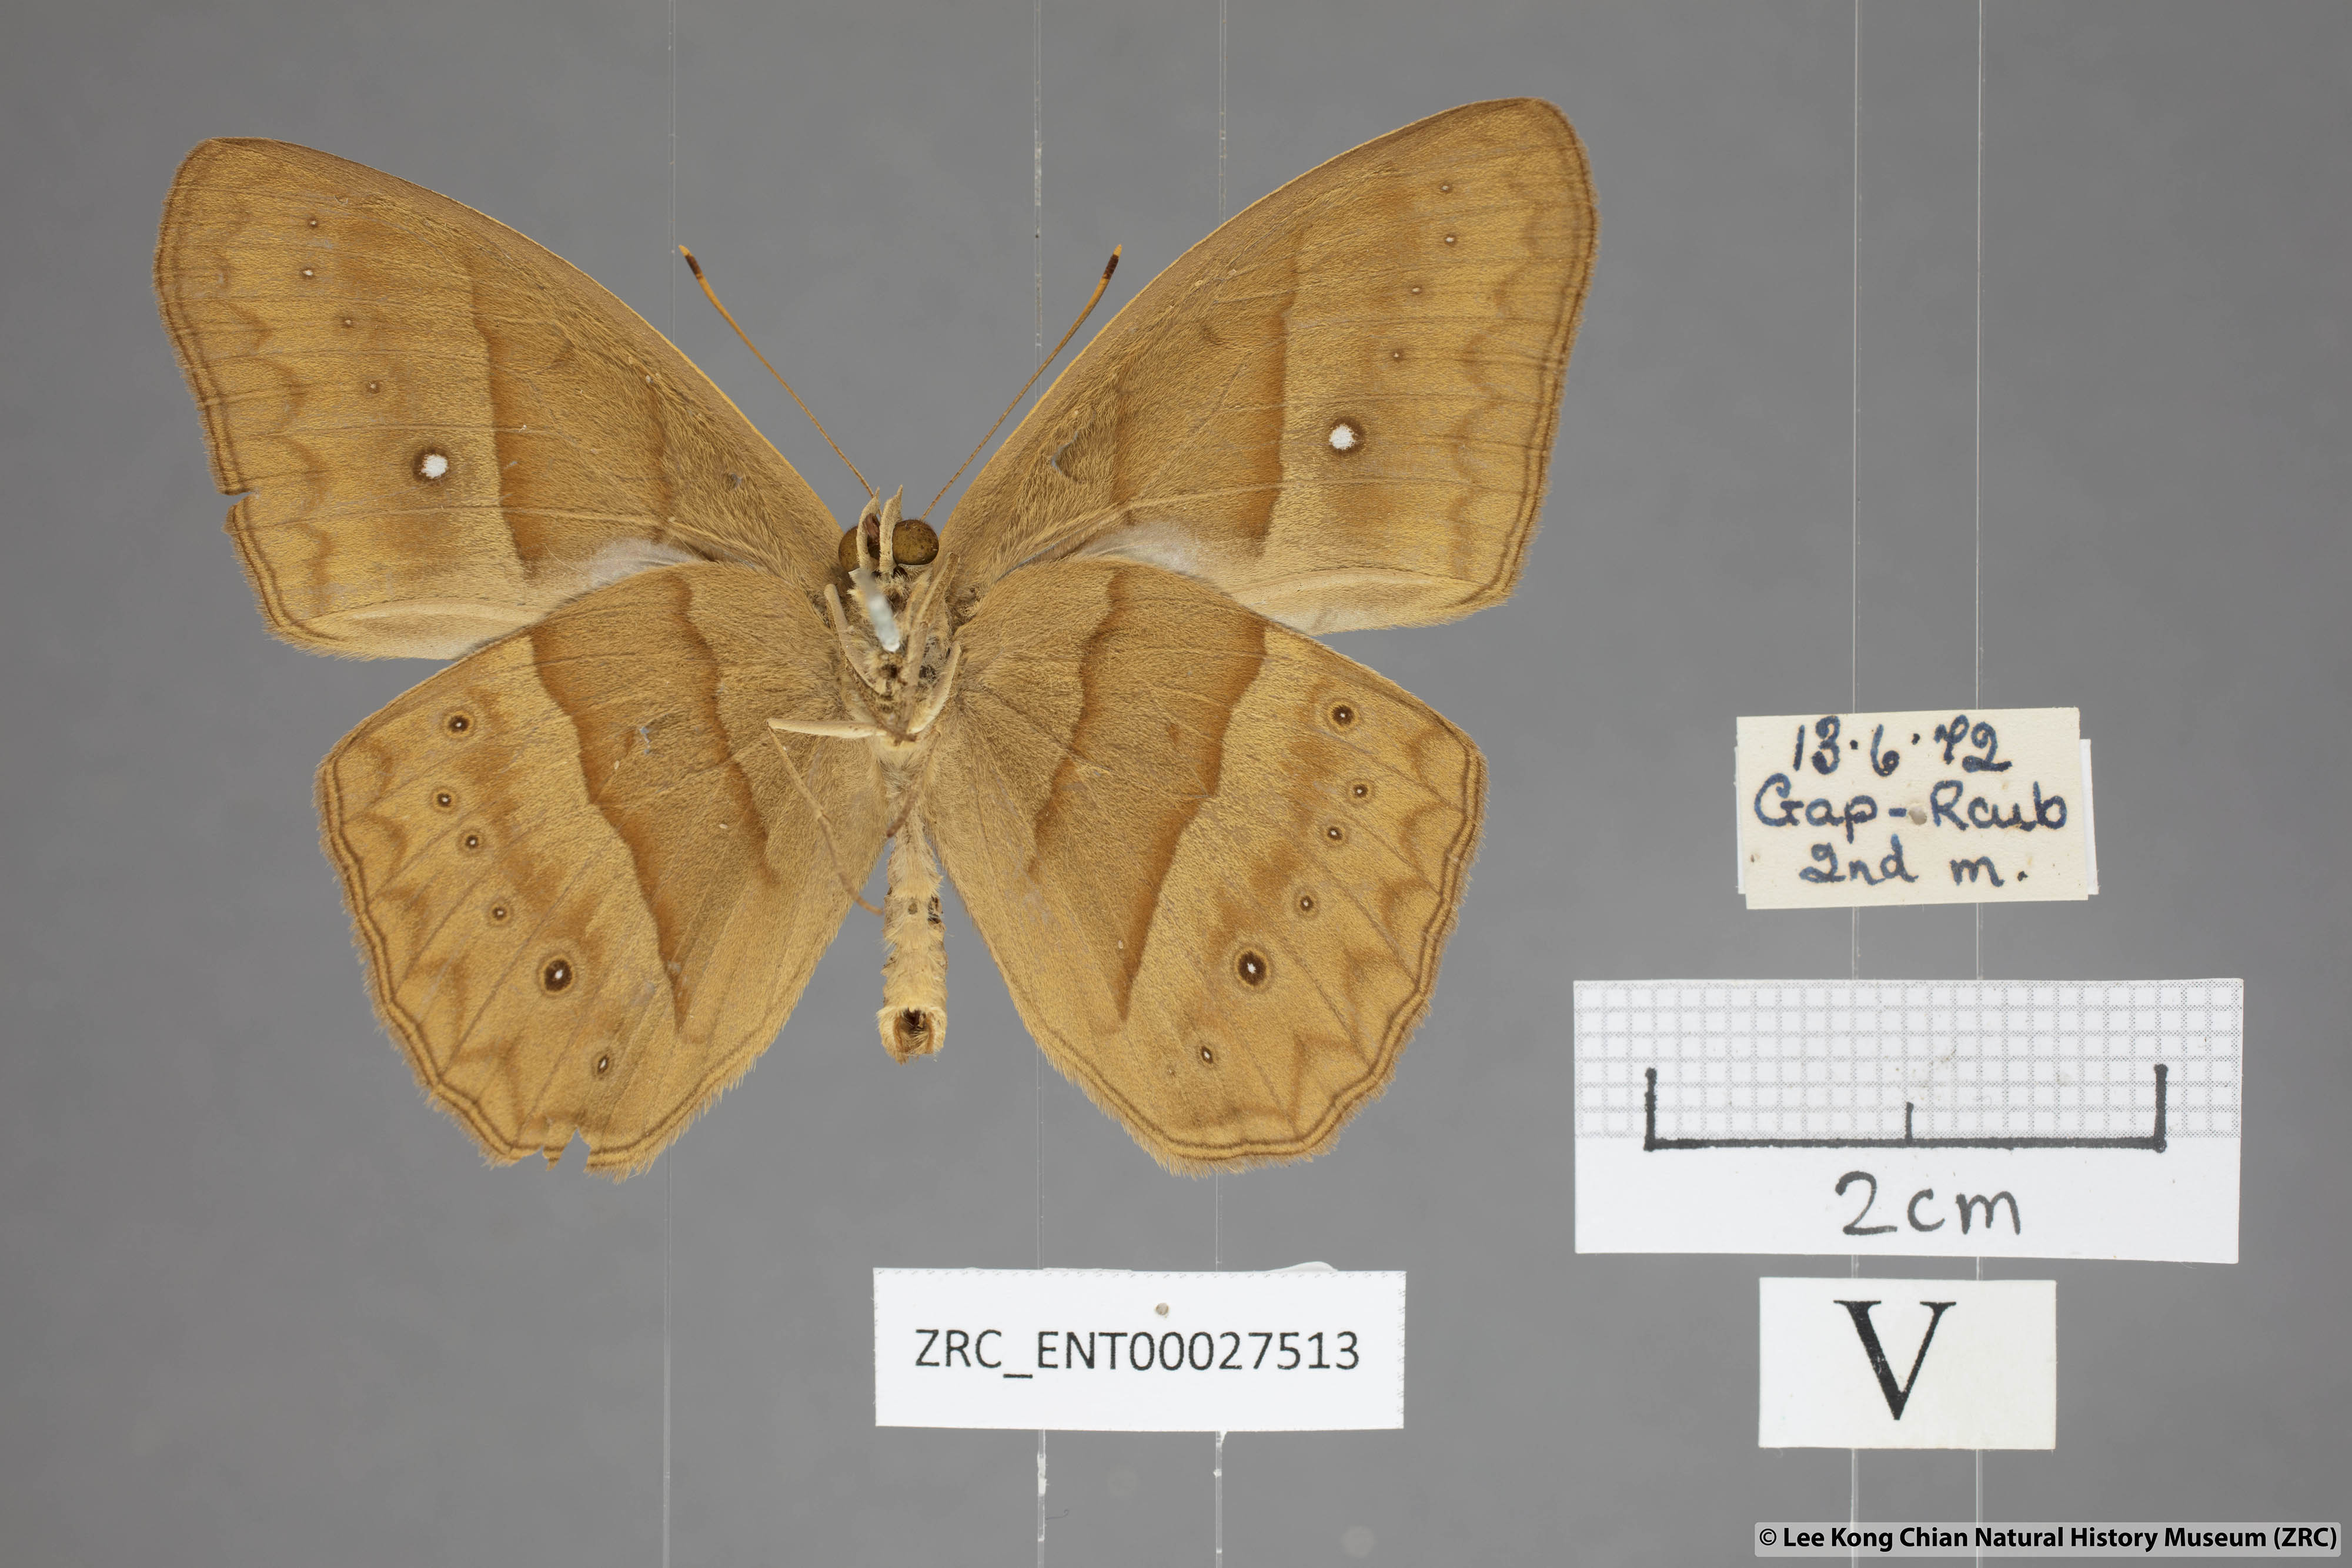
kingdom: Animalia
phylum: Arthropoda
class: Insecta
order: Lepidoptera
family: Nymphalidae
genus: Mycalesis
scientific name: Mycalesis mnasicles
